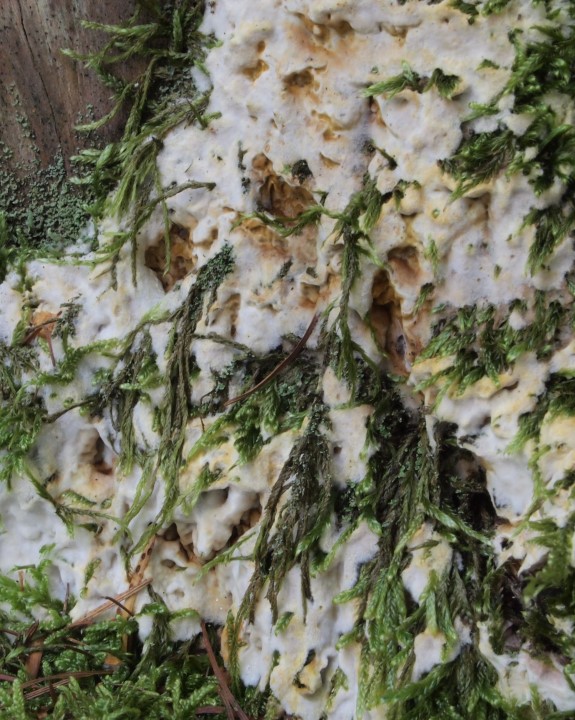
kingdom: Fungi
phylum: Basidiomycota
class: Agaricomycetes
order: Polyporales
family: Fomitopsidaceae
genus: Daedalea
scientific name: Daedalea xantha
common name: gul sejporesvamp
